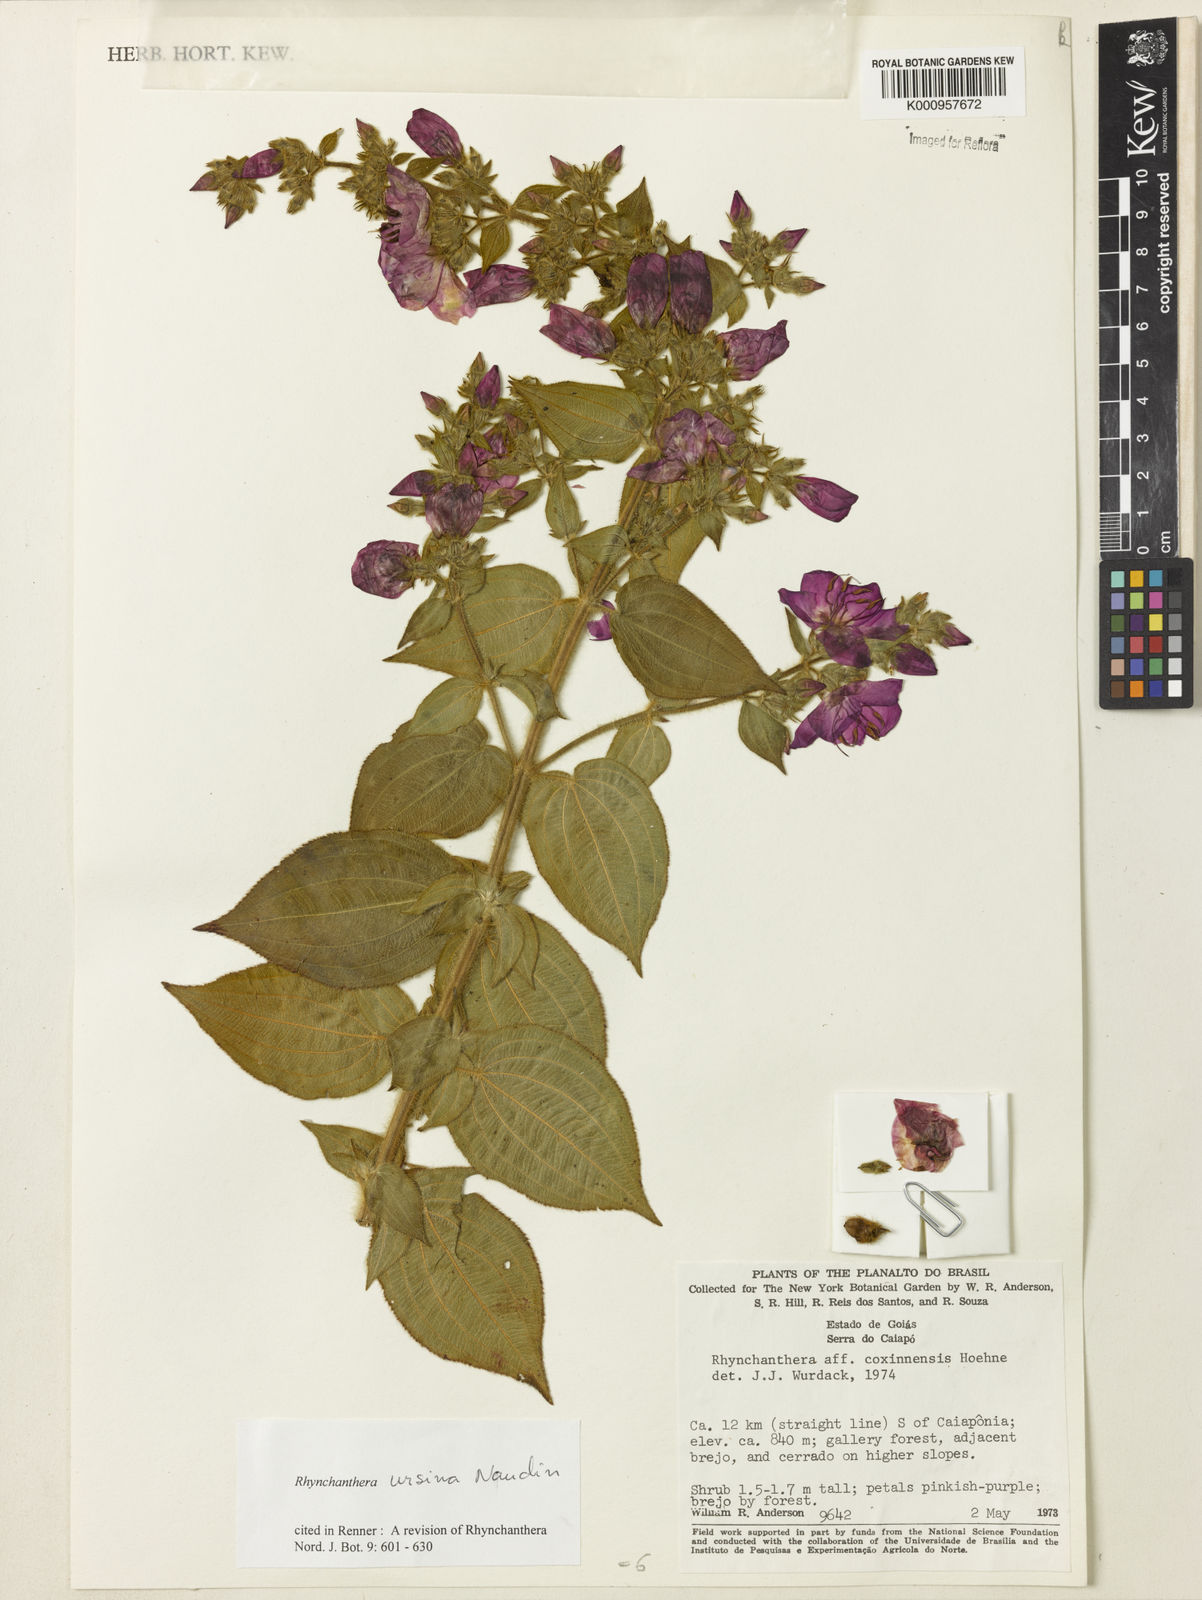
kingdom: Plantae
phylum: Tracheophyta
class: Magnoliopsida
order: Myrtales
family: Melastomataceae
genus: Rhynchanthera
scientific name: Rhynchanthera ursina
